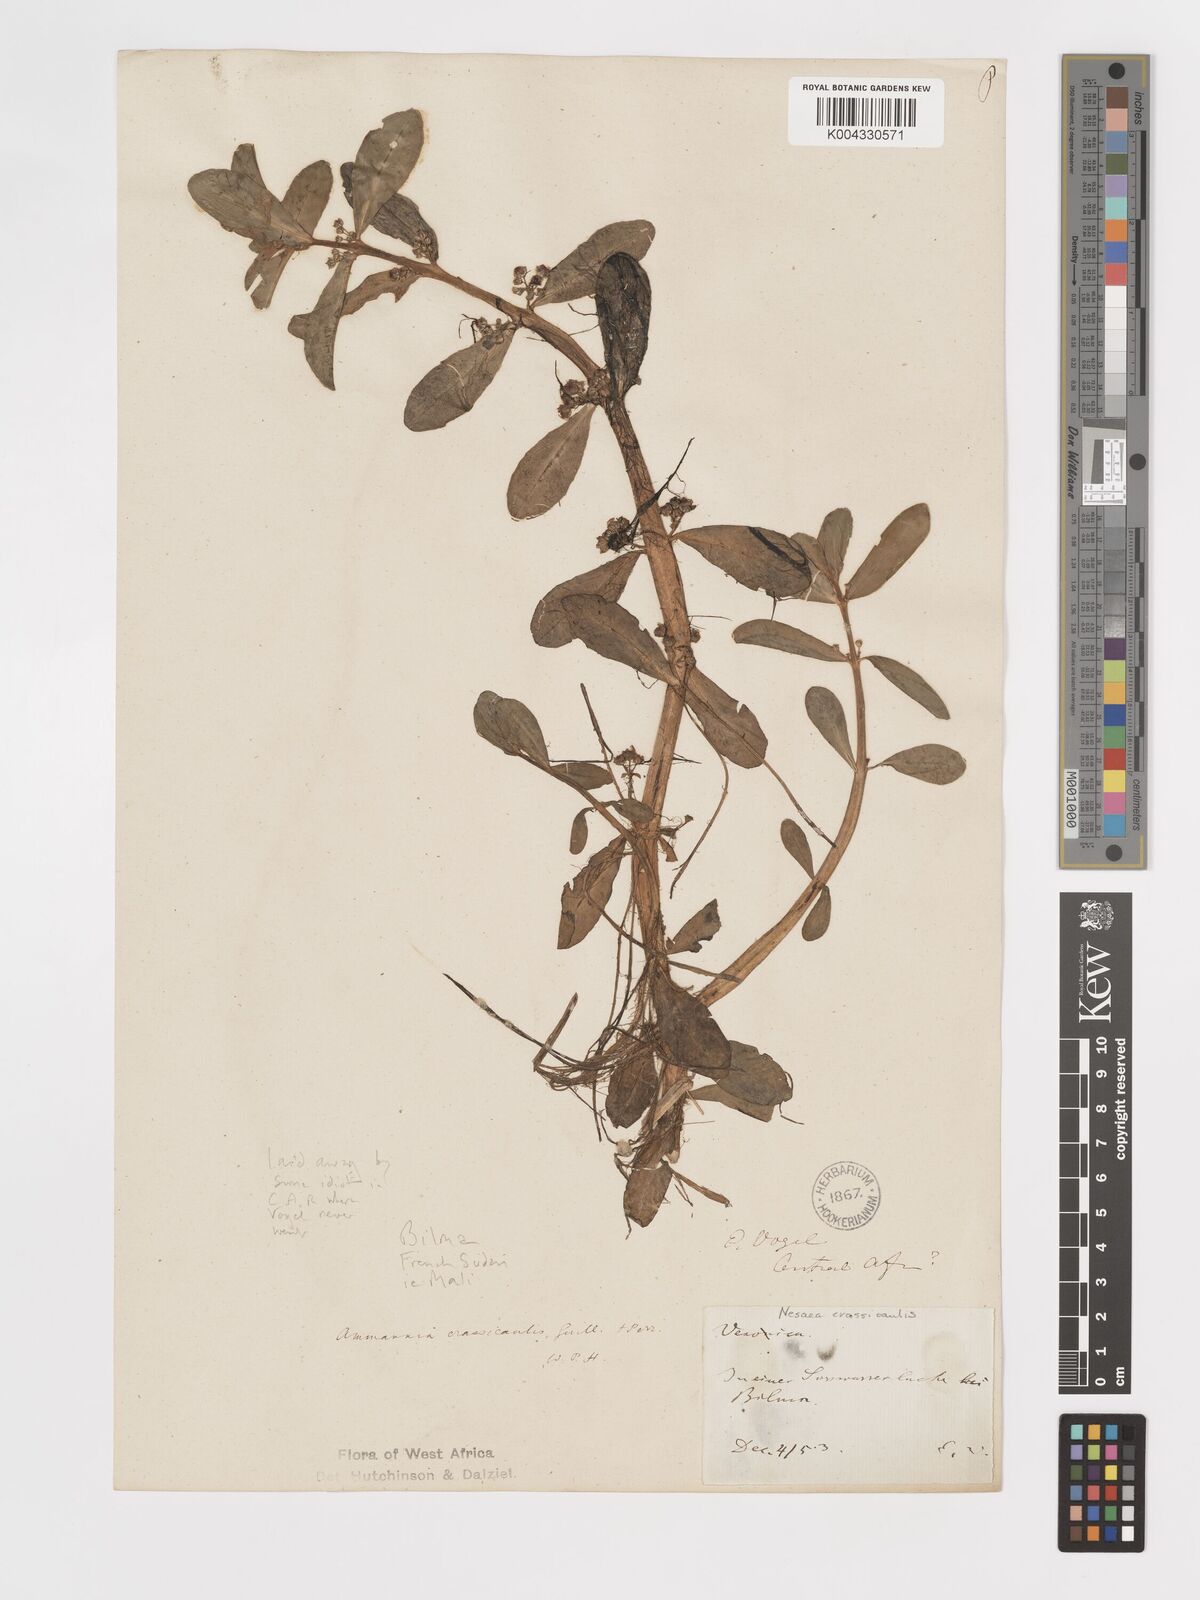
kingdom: Plantae
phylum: Tracheophyta
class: Magnoliopsida
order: Myrtales
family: Lythraceae
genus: Ammannia
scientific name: Ammannia crassicaulis
